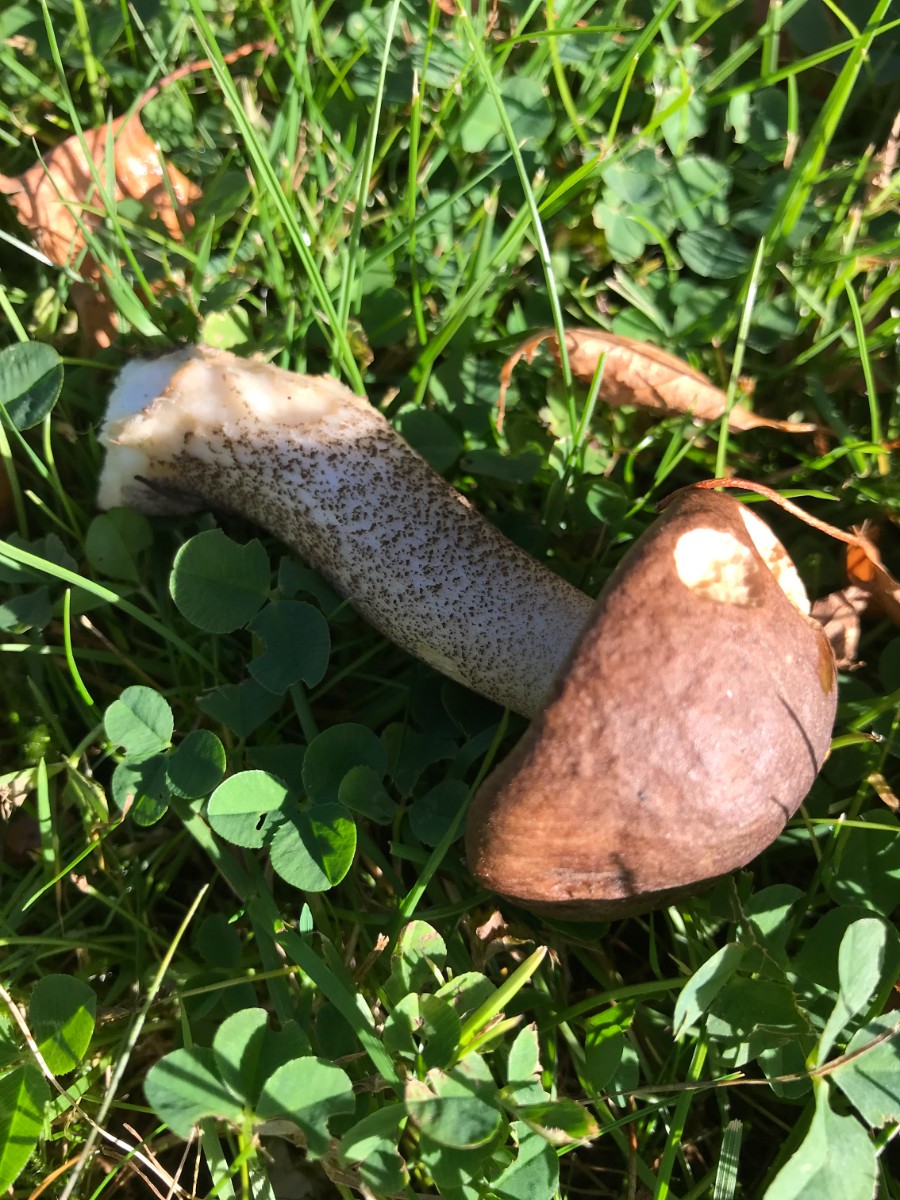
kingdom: Fungi
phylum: Basidiomycota
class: Agaricomycetes
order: Boletales
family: Boletaceae
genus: Leccinum
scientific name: Leccinum scabrum
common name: brun skælrørhat
